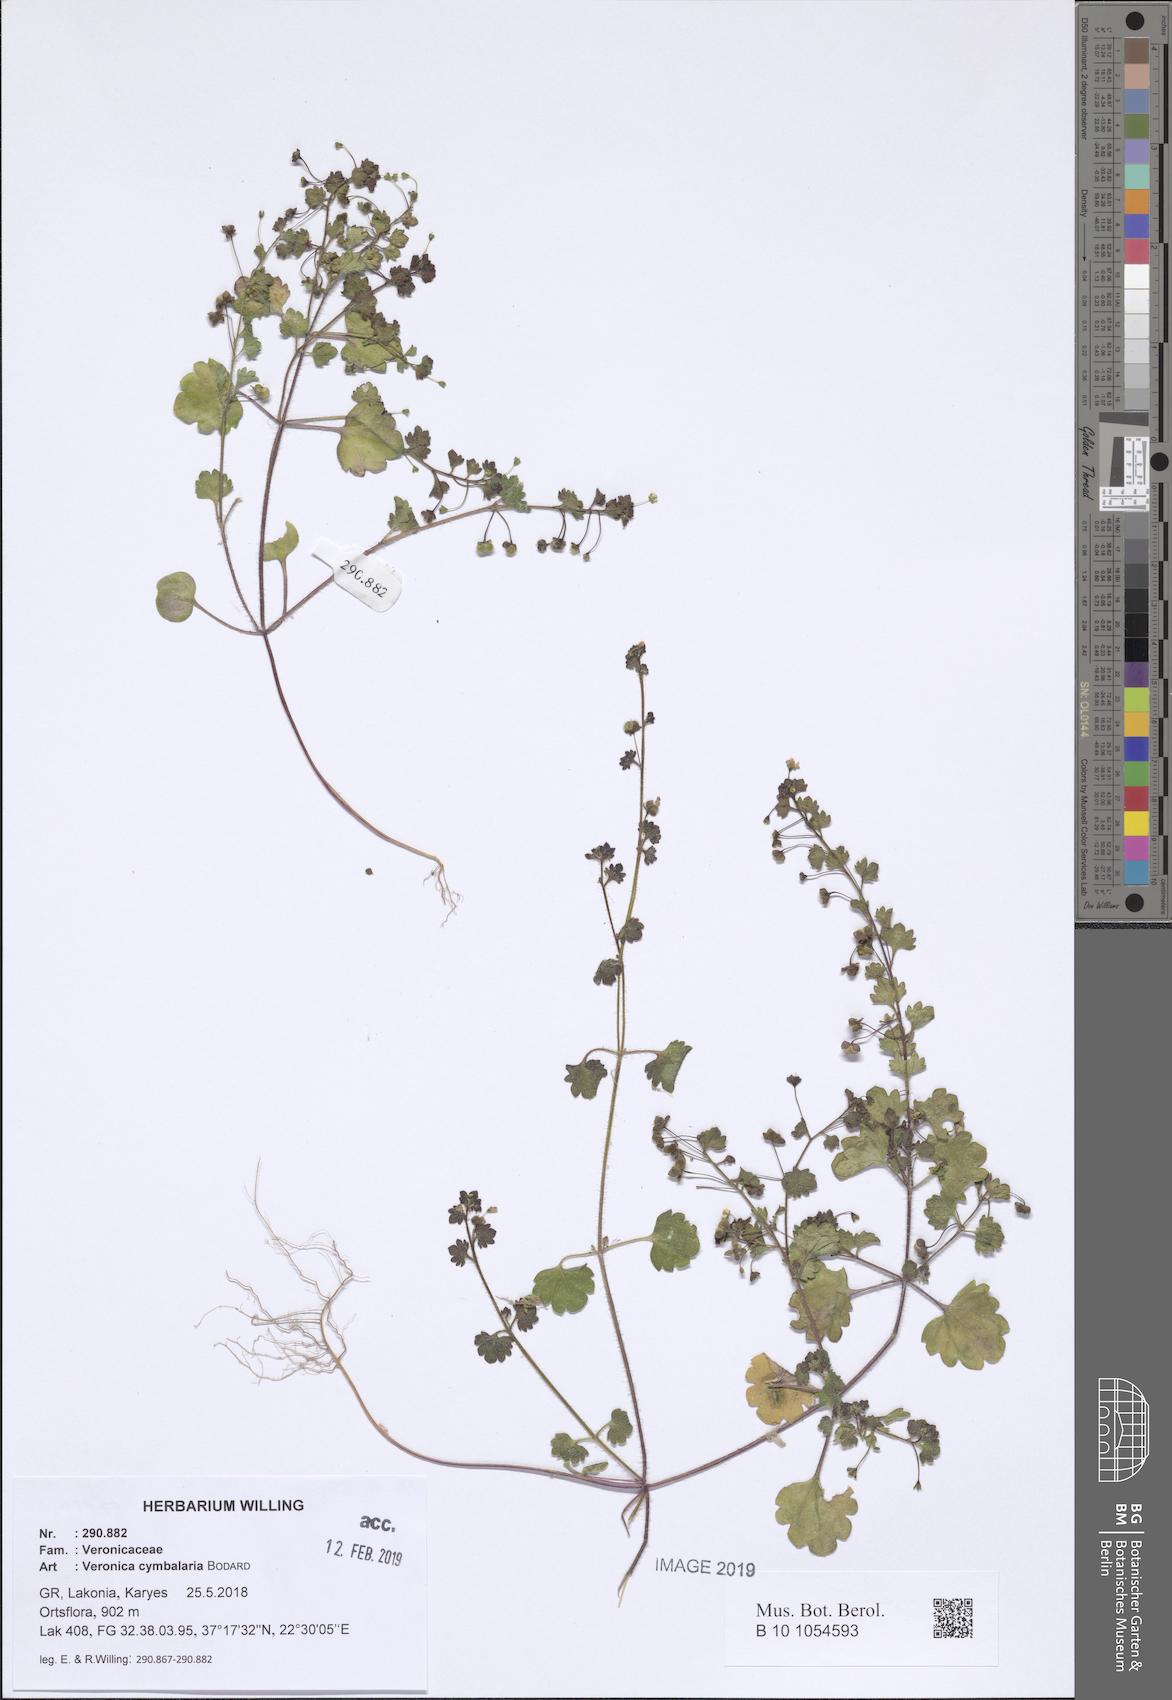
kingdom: Plantae
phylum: Tracheophyta
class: Magnoliopsida
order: Lamiales
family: Plantaginaceae
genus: Veronica
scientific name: Veronica cymbalaria
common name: Pale speedwell
